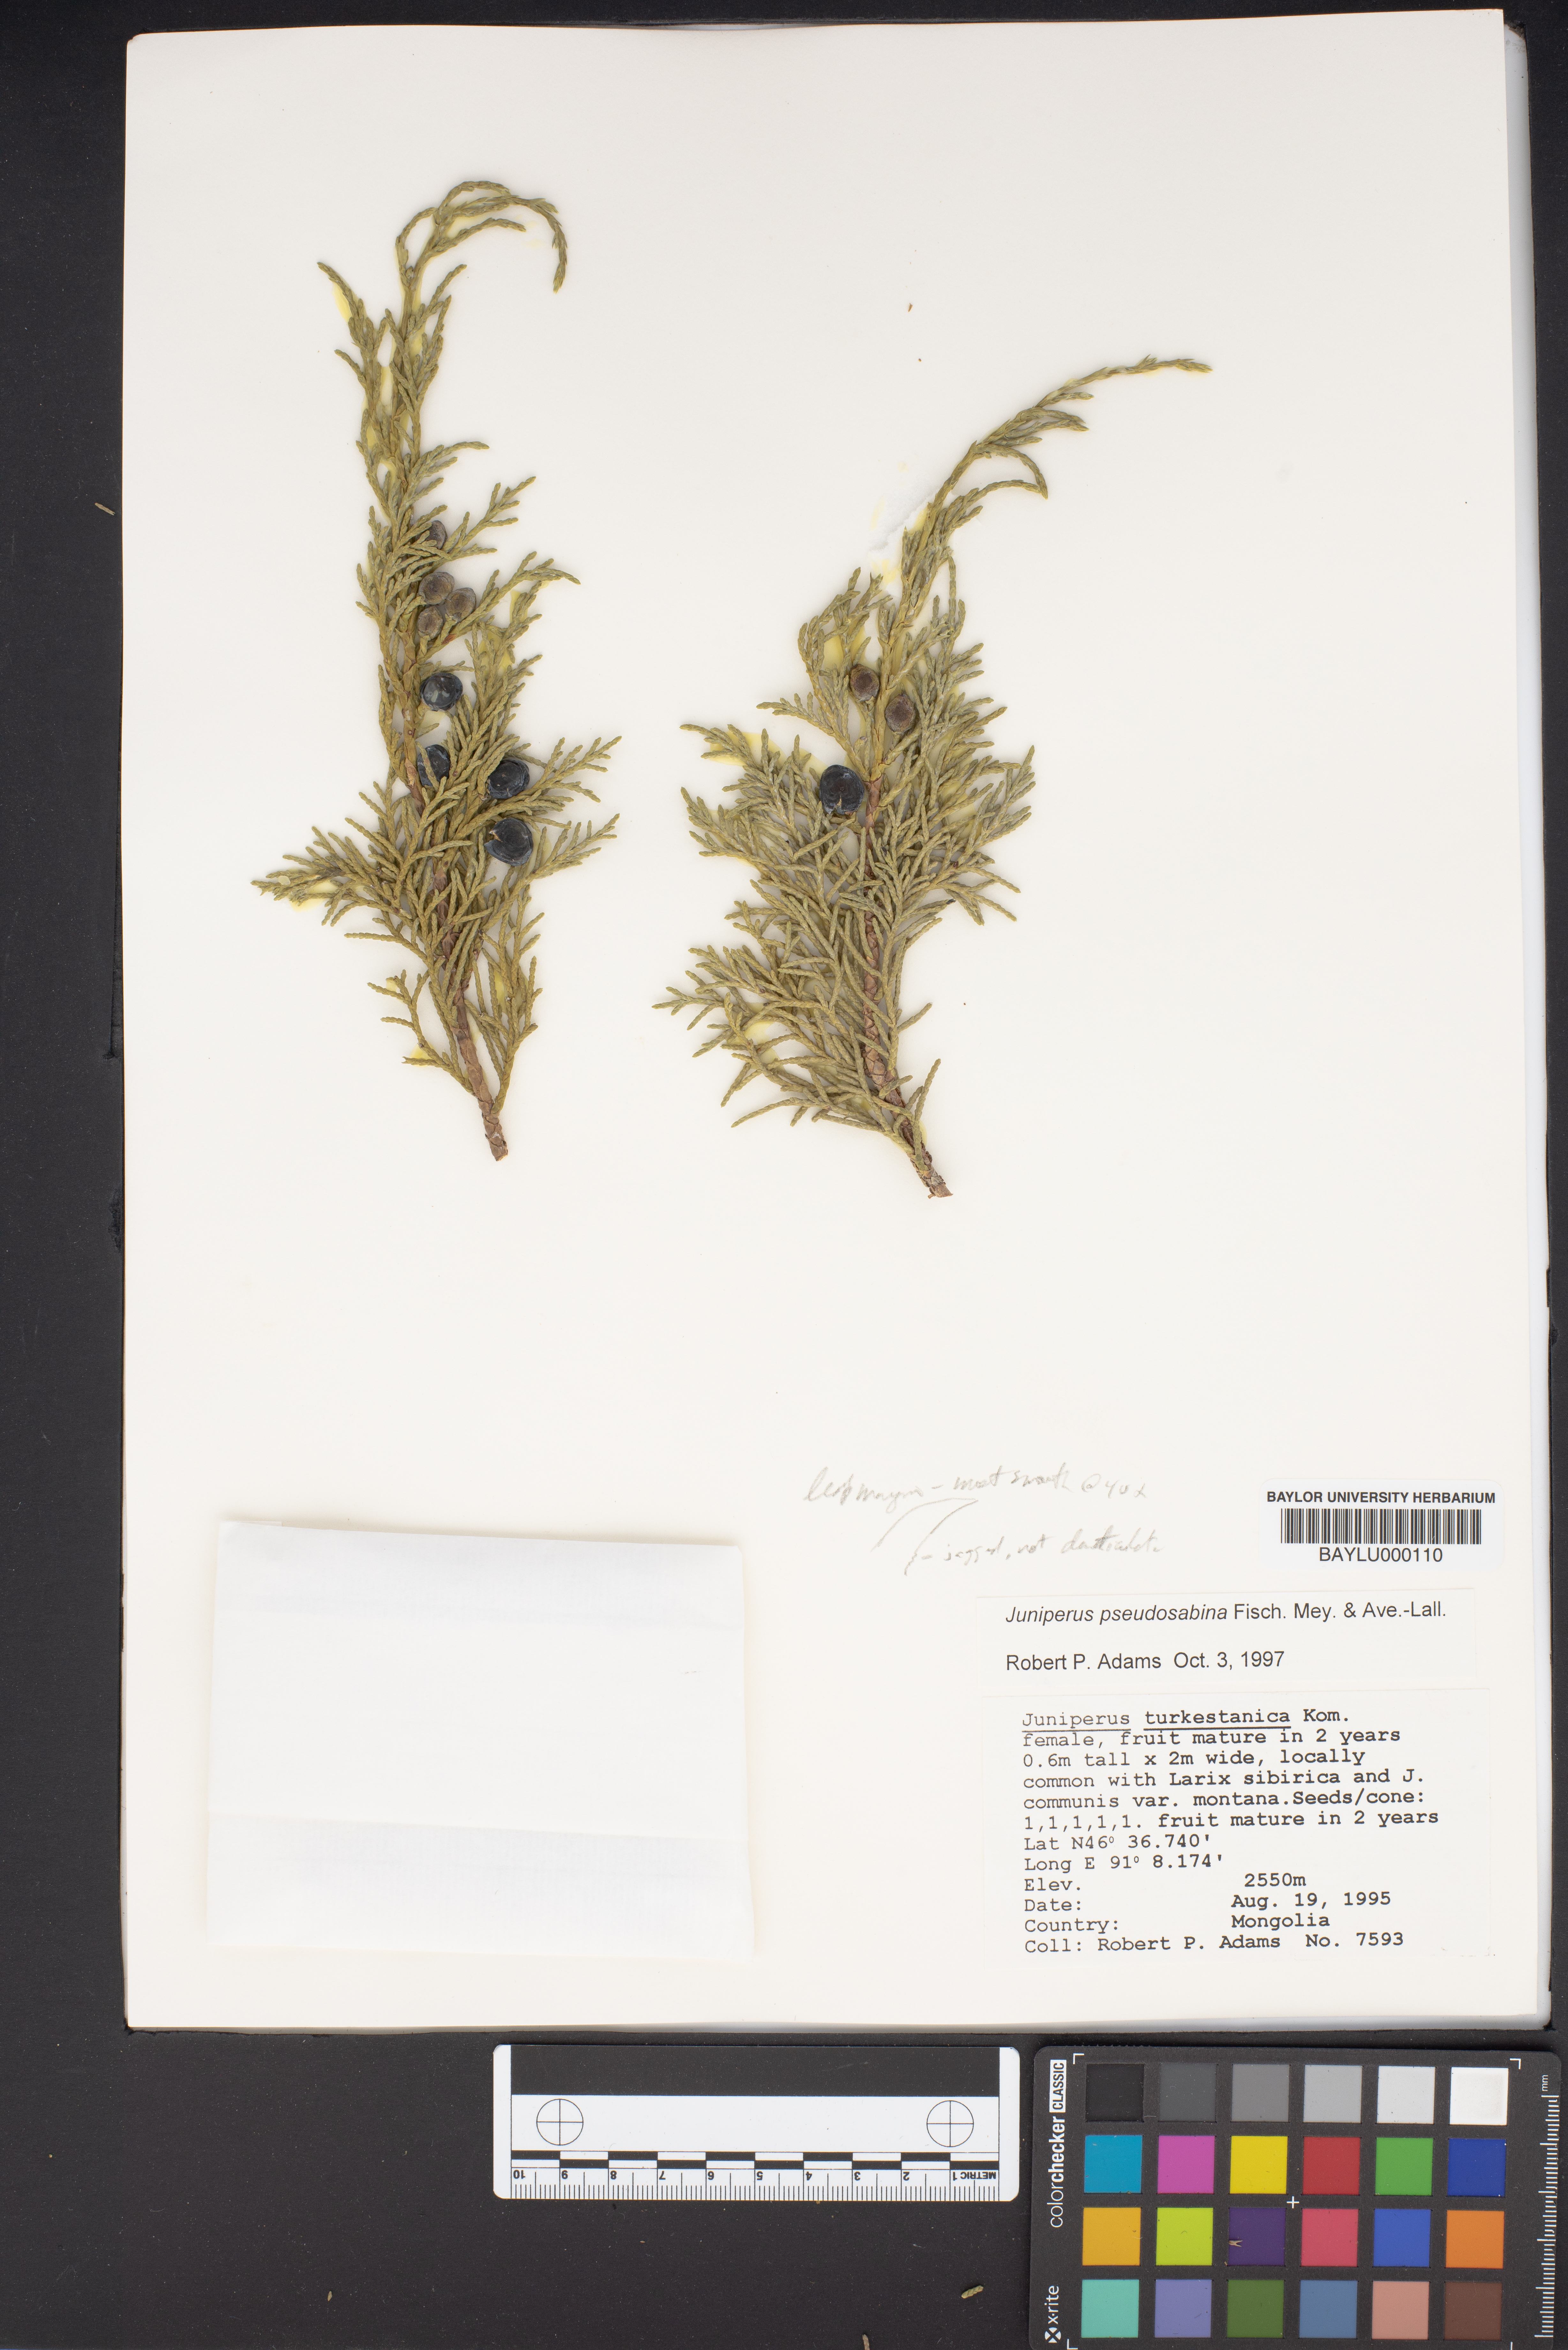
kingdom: Plantae
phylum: Tracheophyta
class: Pinopsida
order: Pinales
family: Cupressaceae
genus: Juniperus
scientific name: Juniperus pseudosabina
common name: Turkestan juniper
